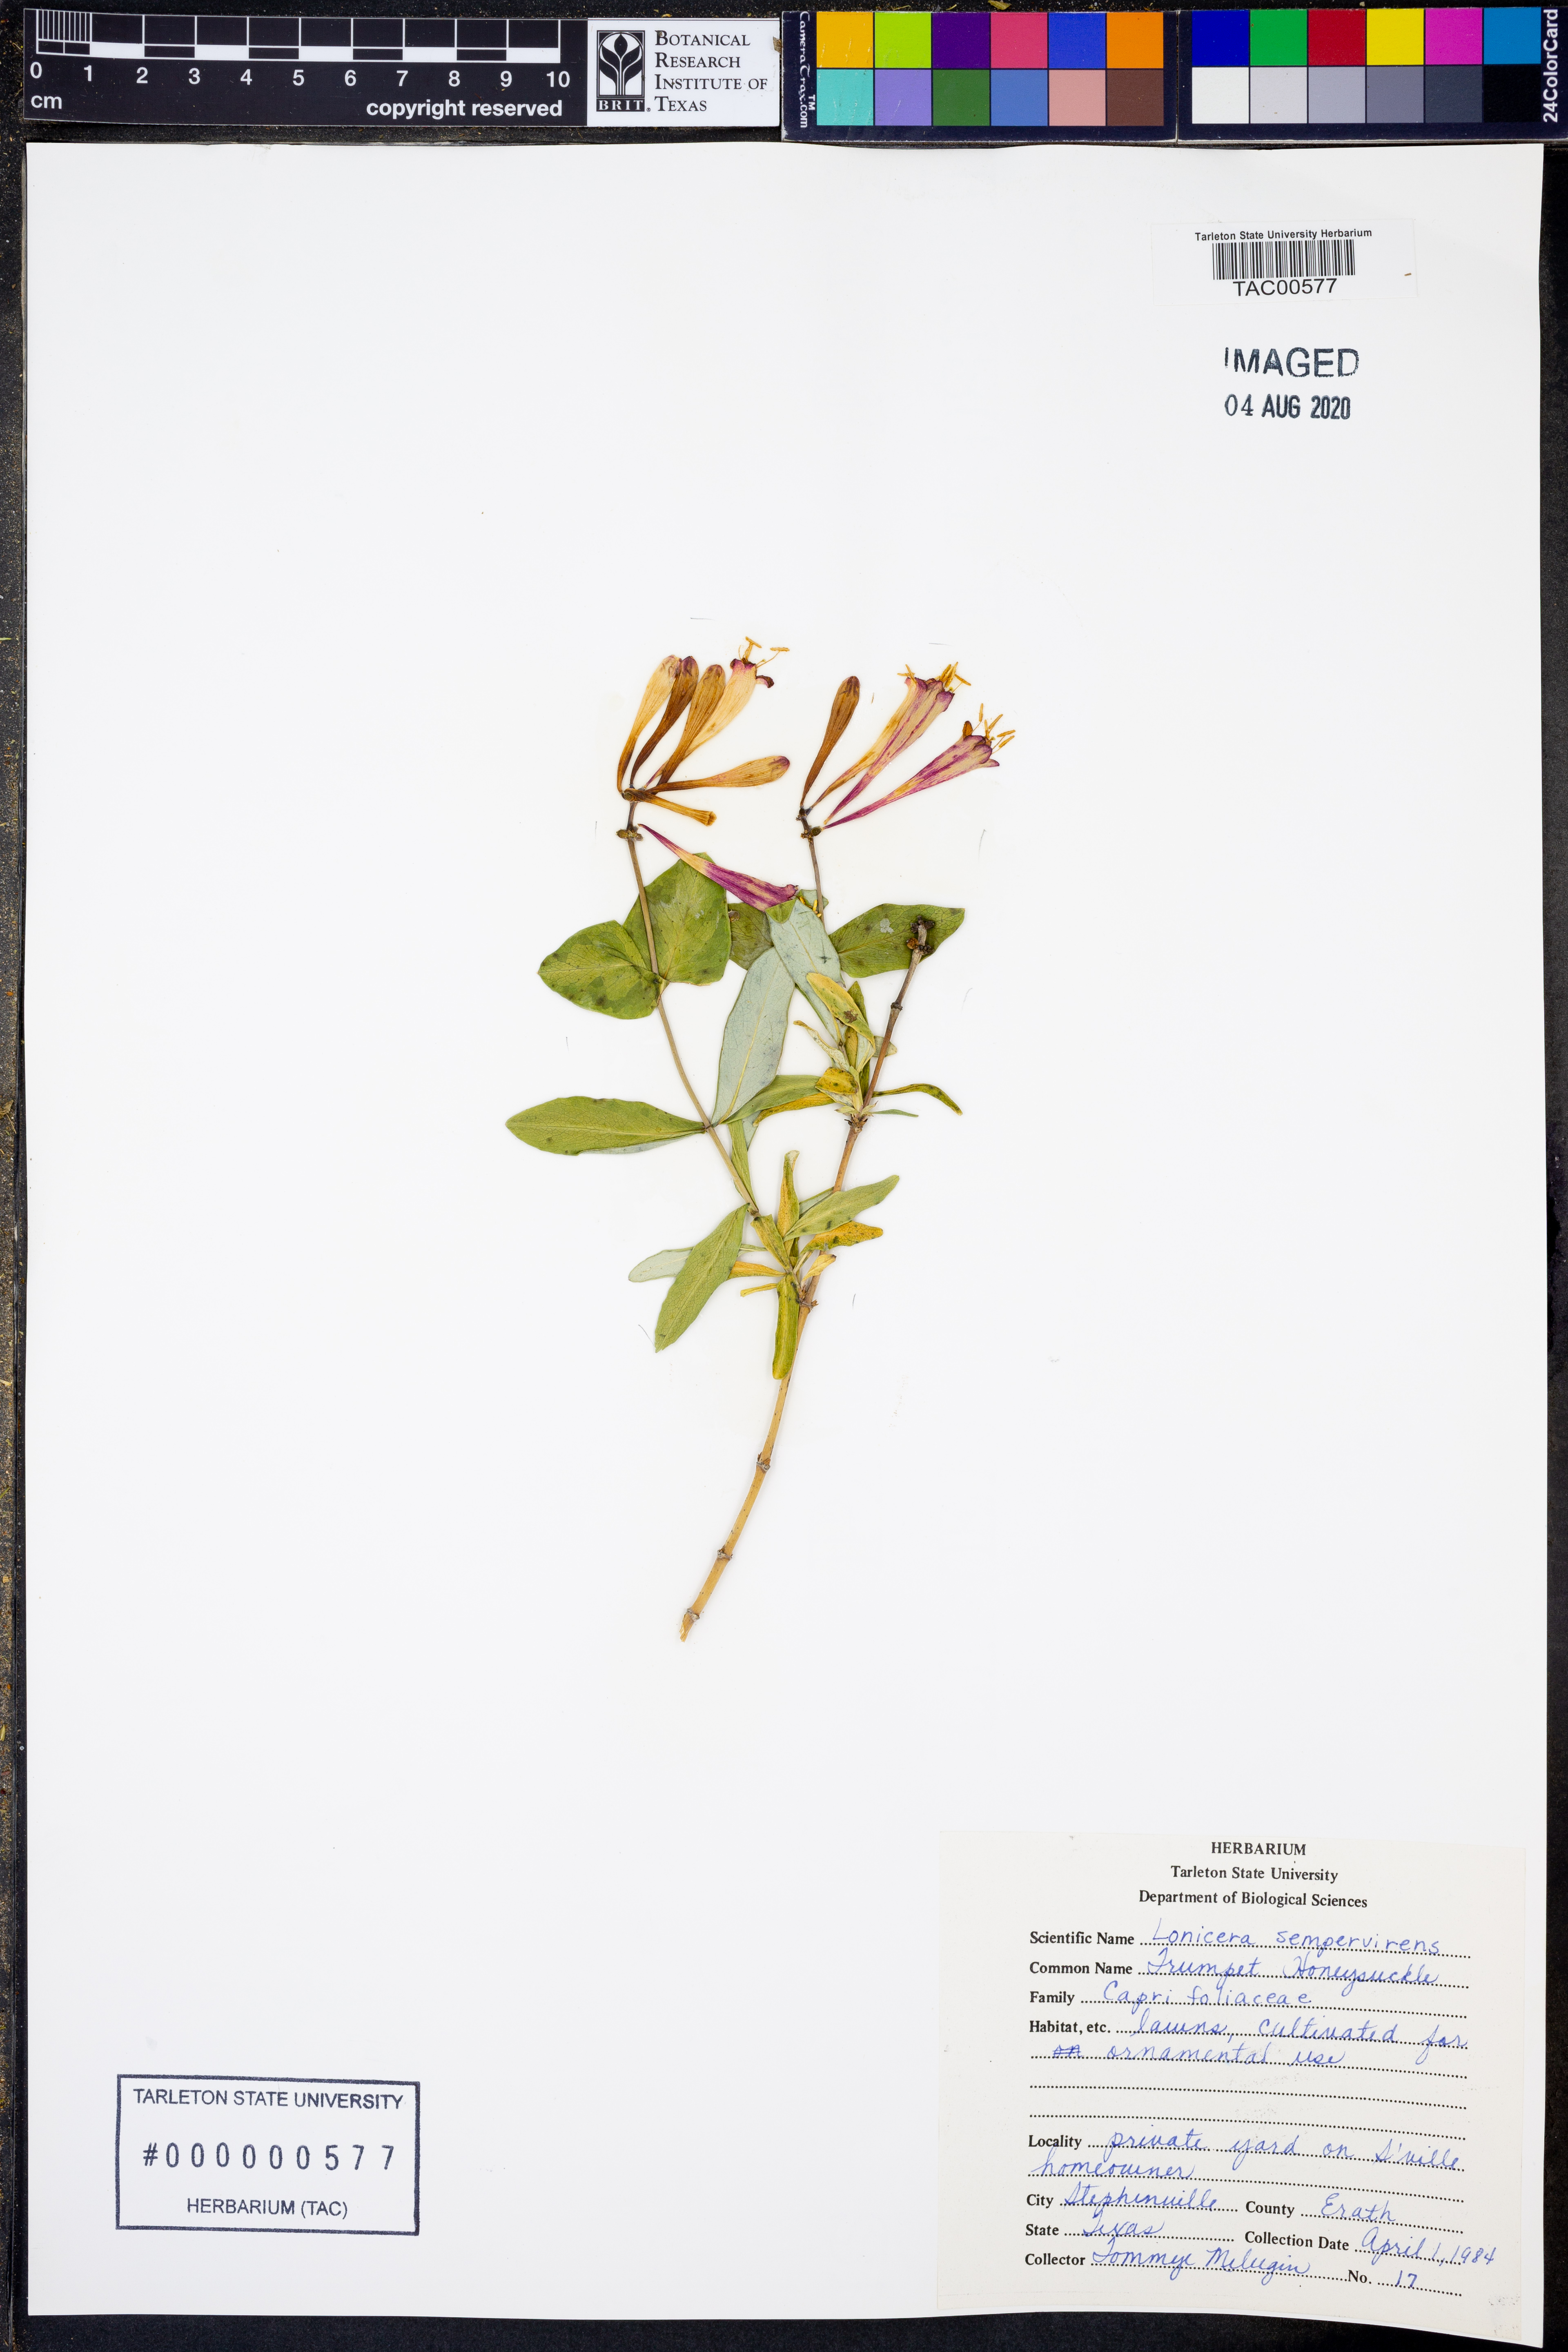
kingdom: Plantae
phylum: Tracheophyta
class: Magnoliopsida
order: Dipsacales
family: Caprifoliaceae
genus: Lonicera
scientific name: Lonicera sempervirens
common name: Coral honeysuckle
